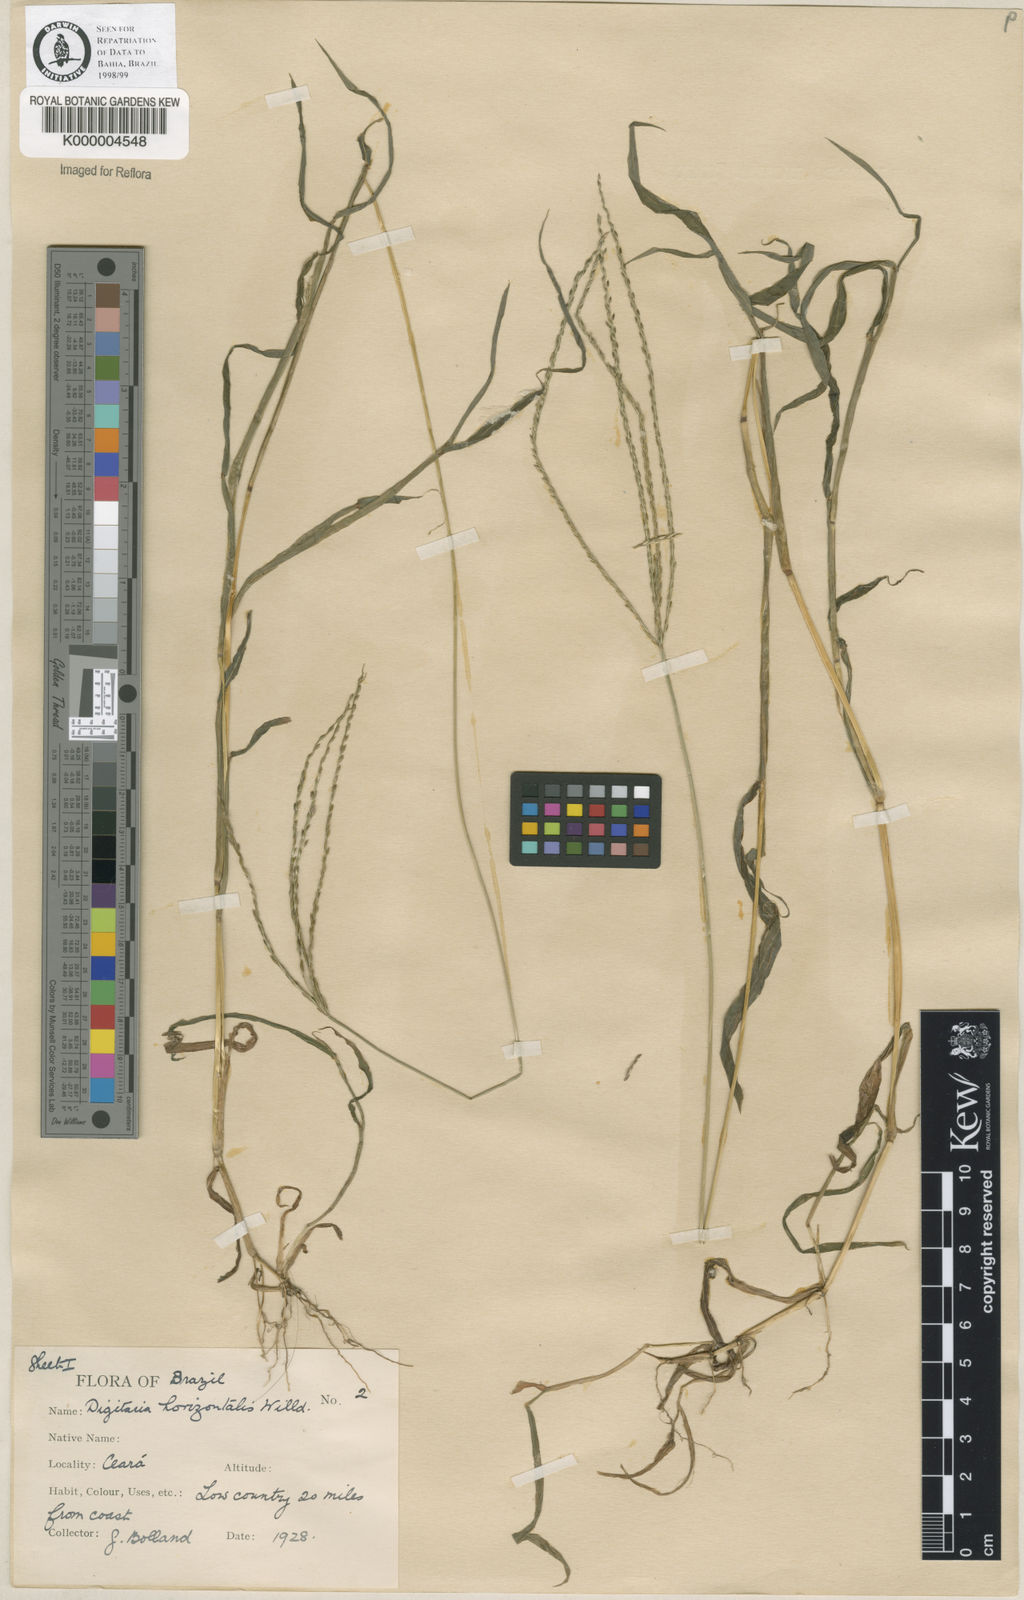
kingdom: Plantae
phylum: Tracheophyta
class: Liliopsida
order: Poales
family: Poaceae
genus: Digitaria
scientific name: Digitaria nuda
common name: Naked crabgrass
